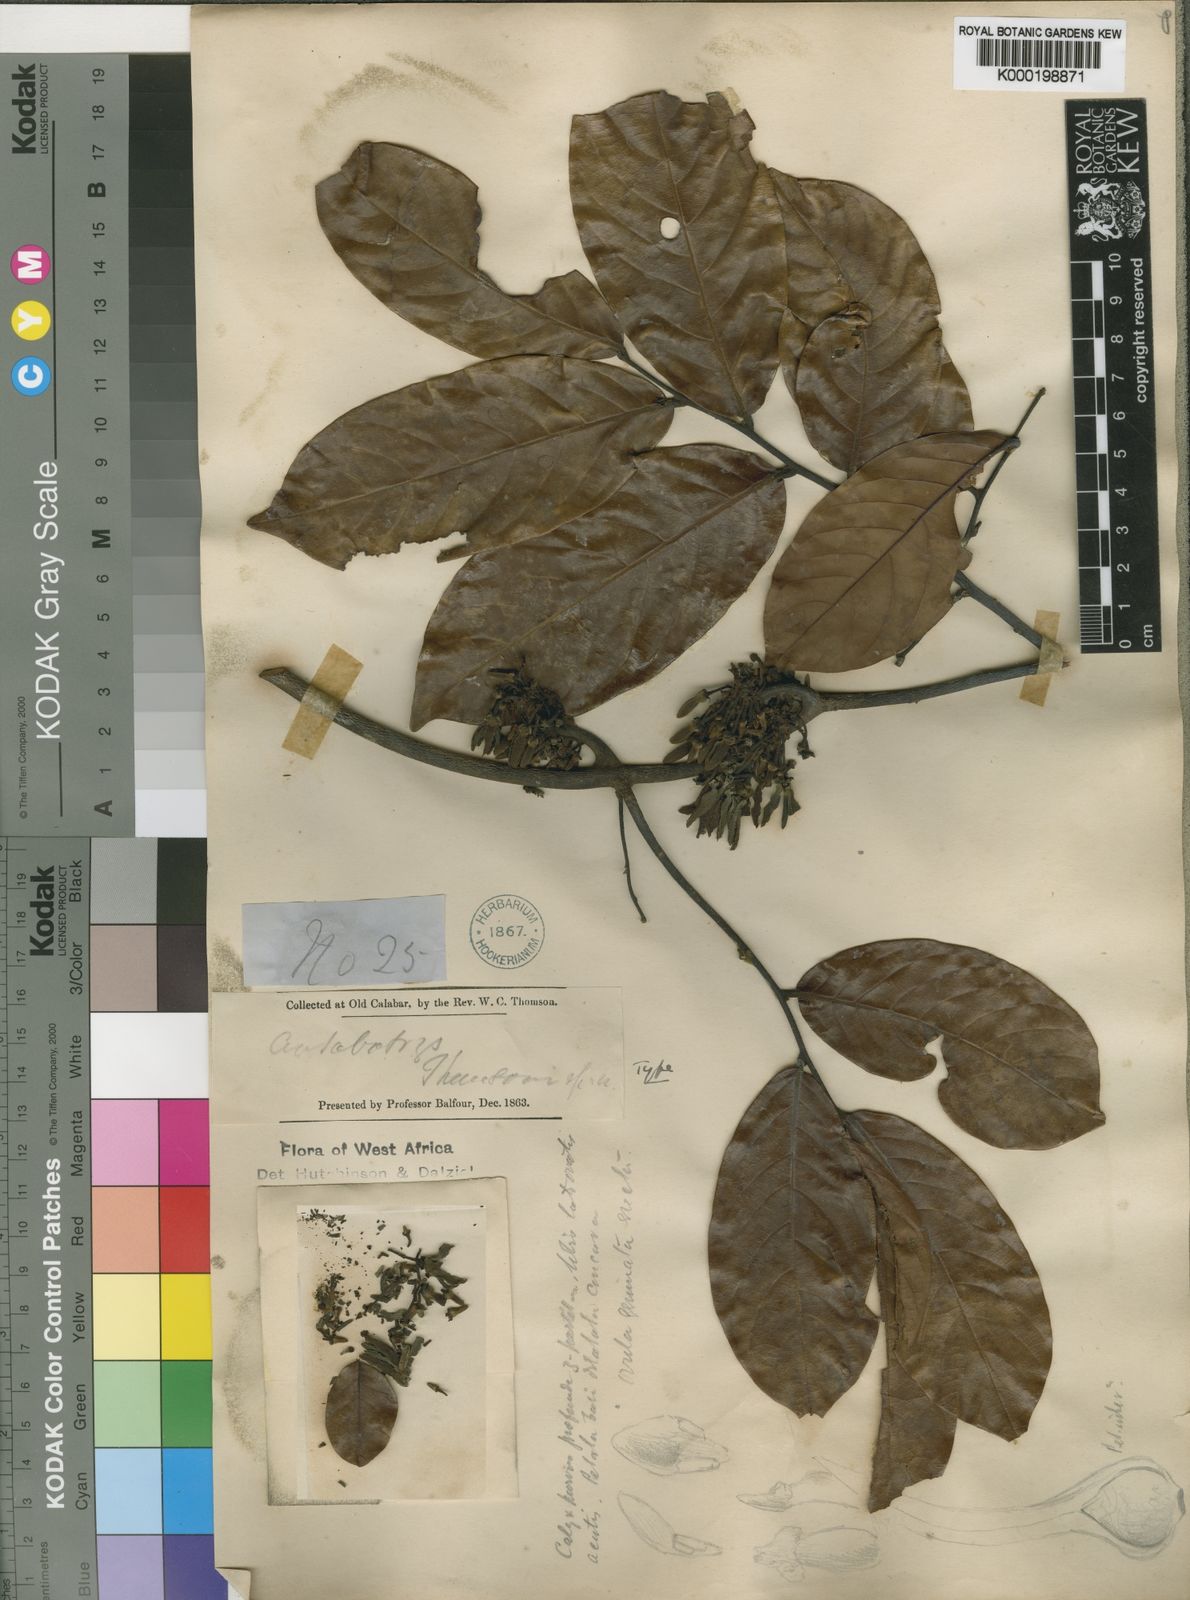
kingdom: Plantae
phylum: Tracheophyta
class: Magnoliopsida
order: Magnoliales
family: Annonaceae
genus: Artabotrys
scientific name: Artabotrys thomsonii
